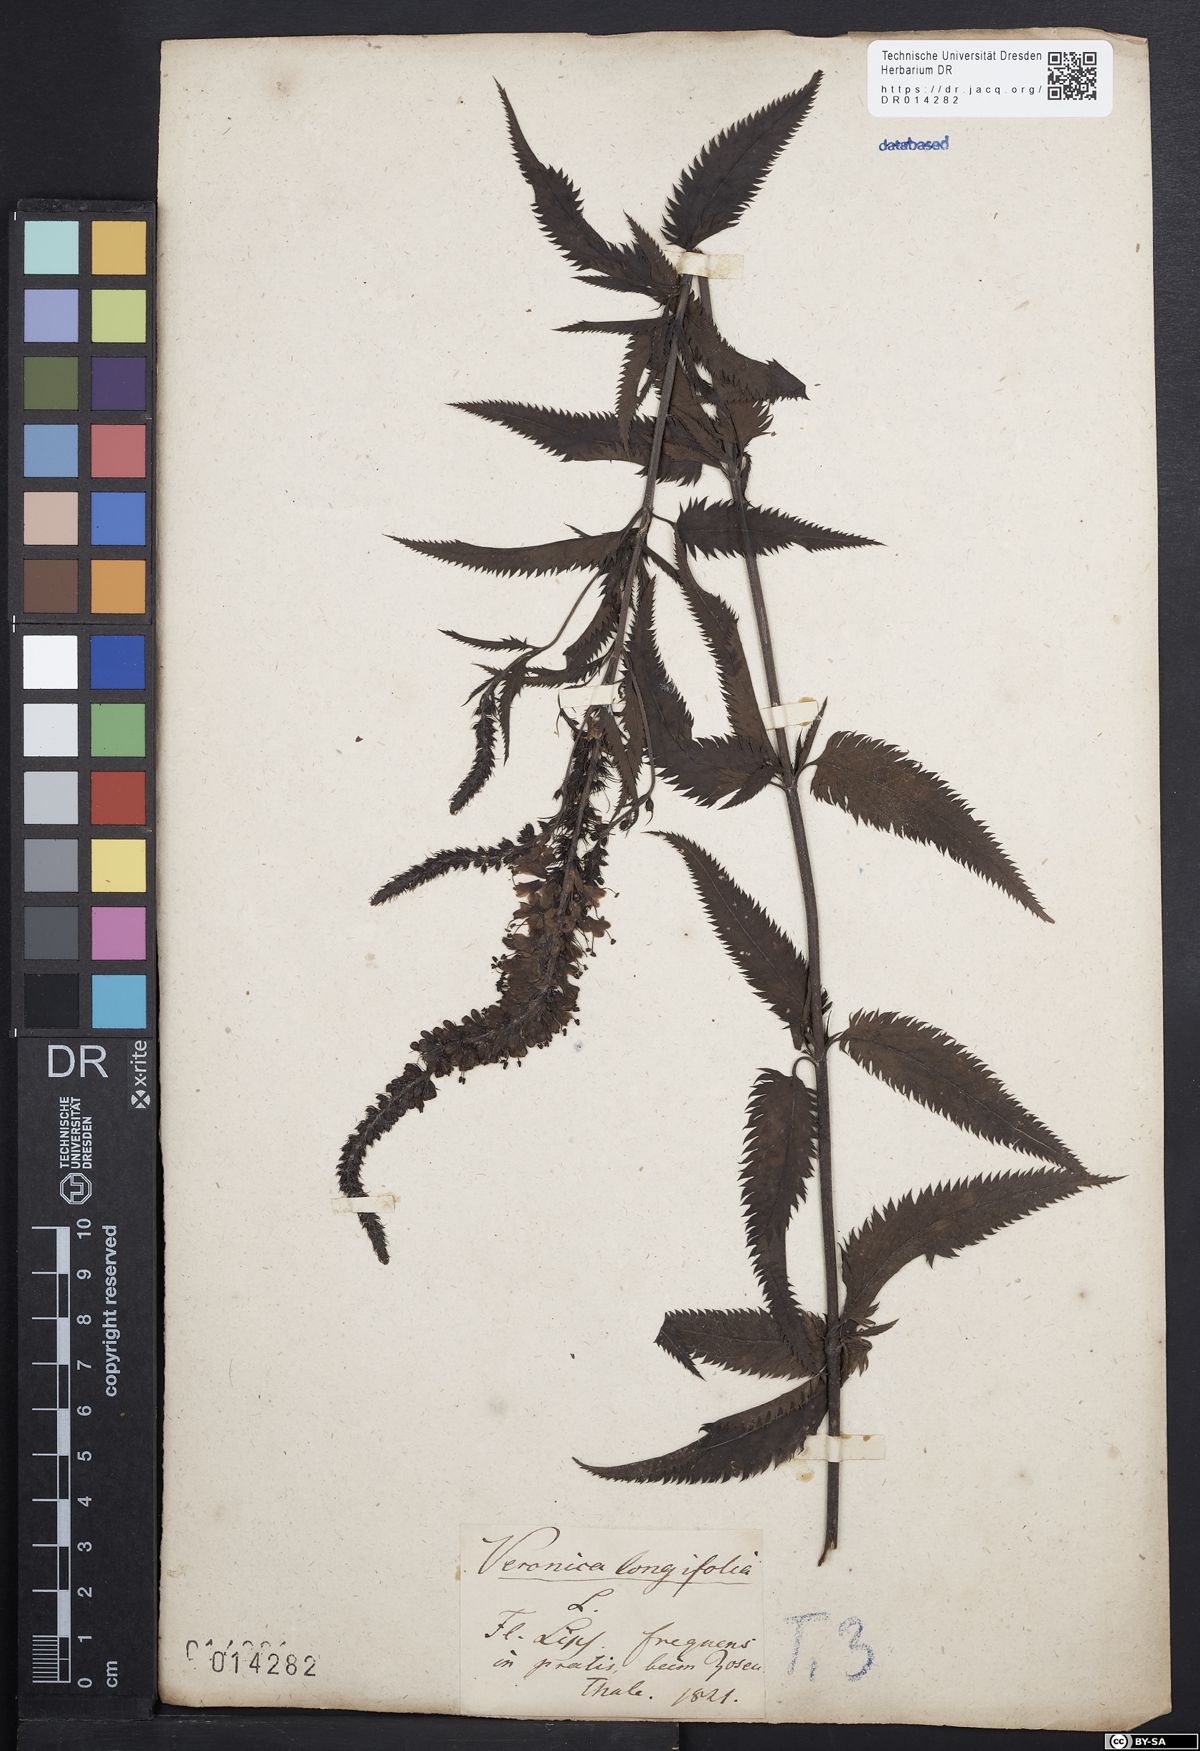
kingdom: Plantae
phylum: Tracheophyta
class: Magnoliopsida
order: Lamiales
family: Plantaginaceae
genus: Veronica
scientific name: Veronica longifolia
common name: Garden speedwell
